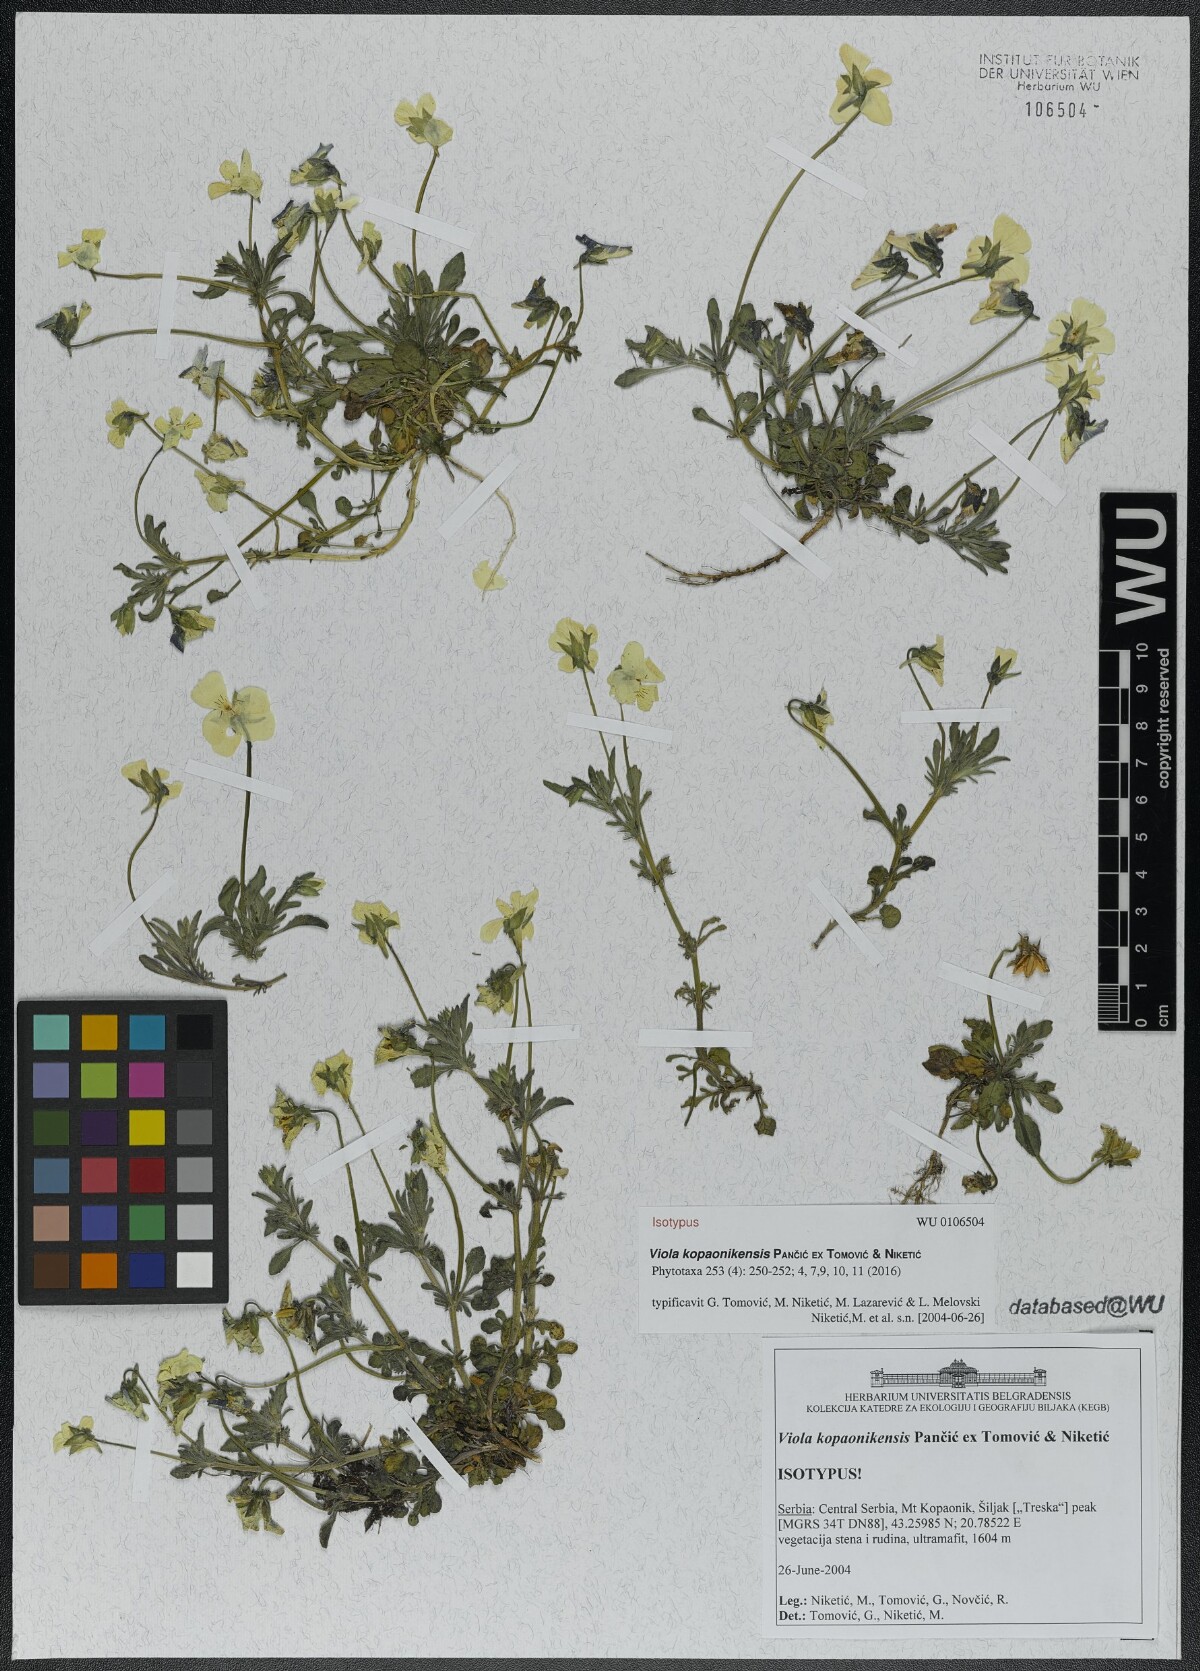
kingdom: Plantae
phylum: Tracheophyta
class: Magnoliopsida
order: Malpighiales
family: Violaceae
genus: Viola
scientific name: Viola kopaonikensis
